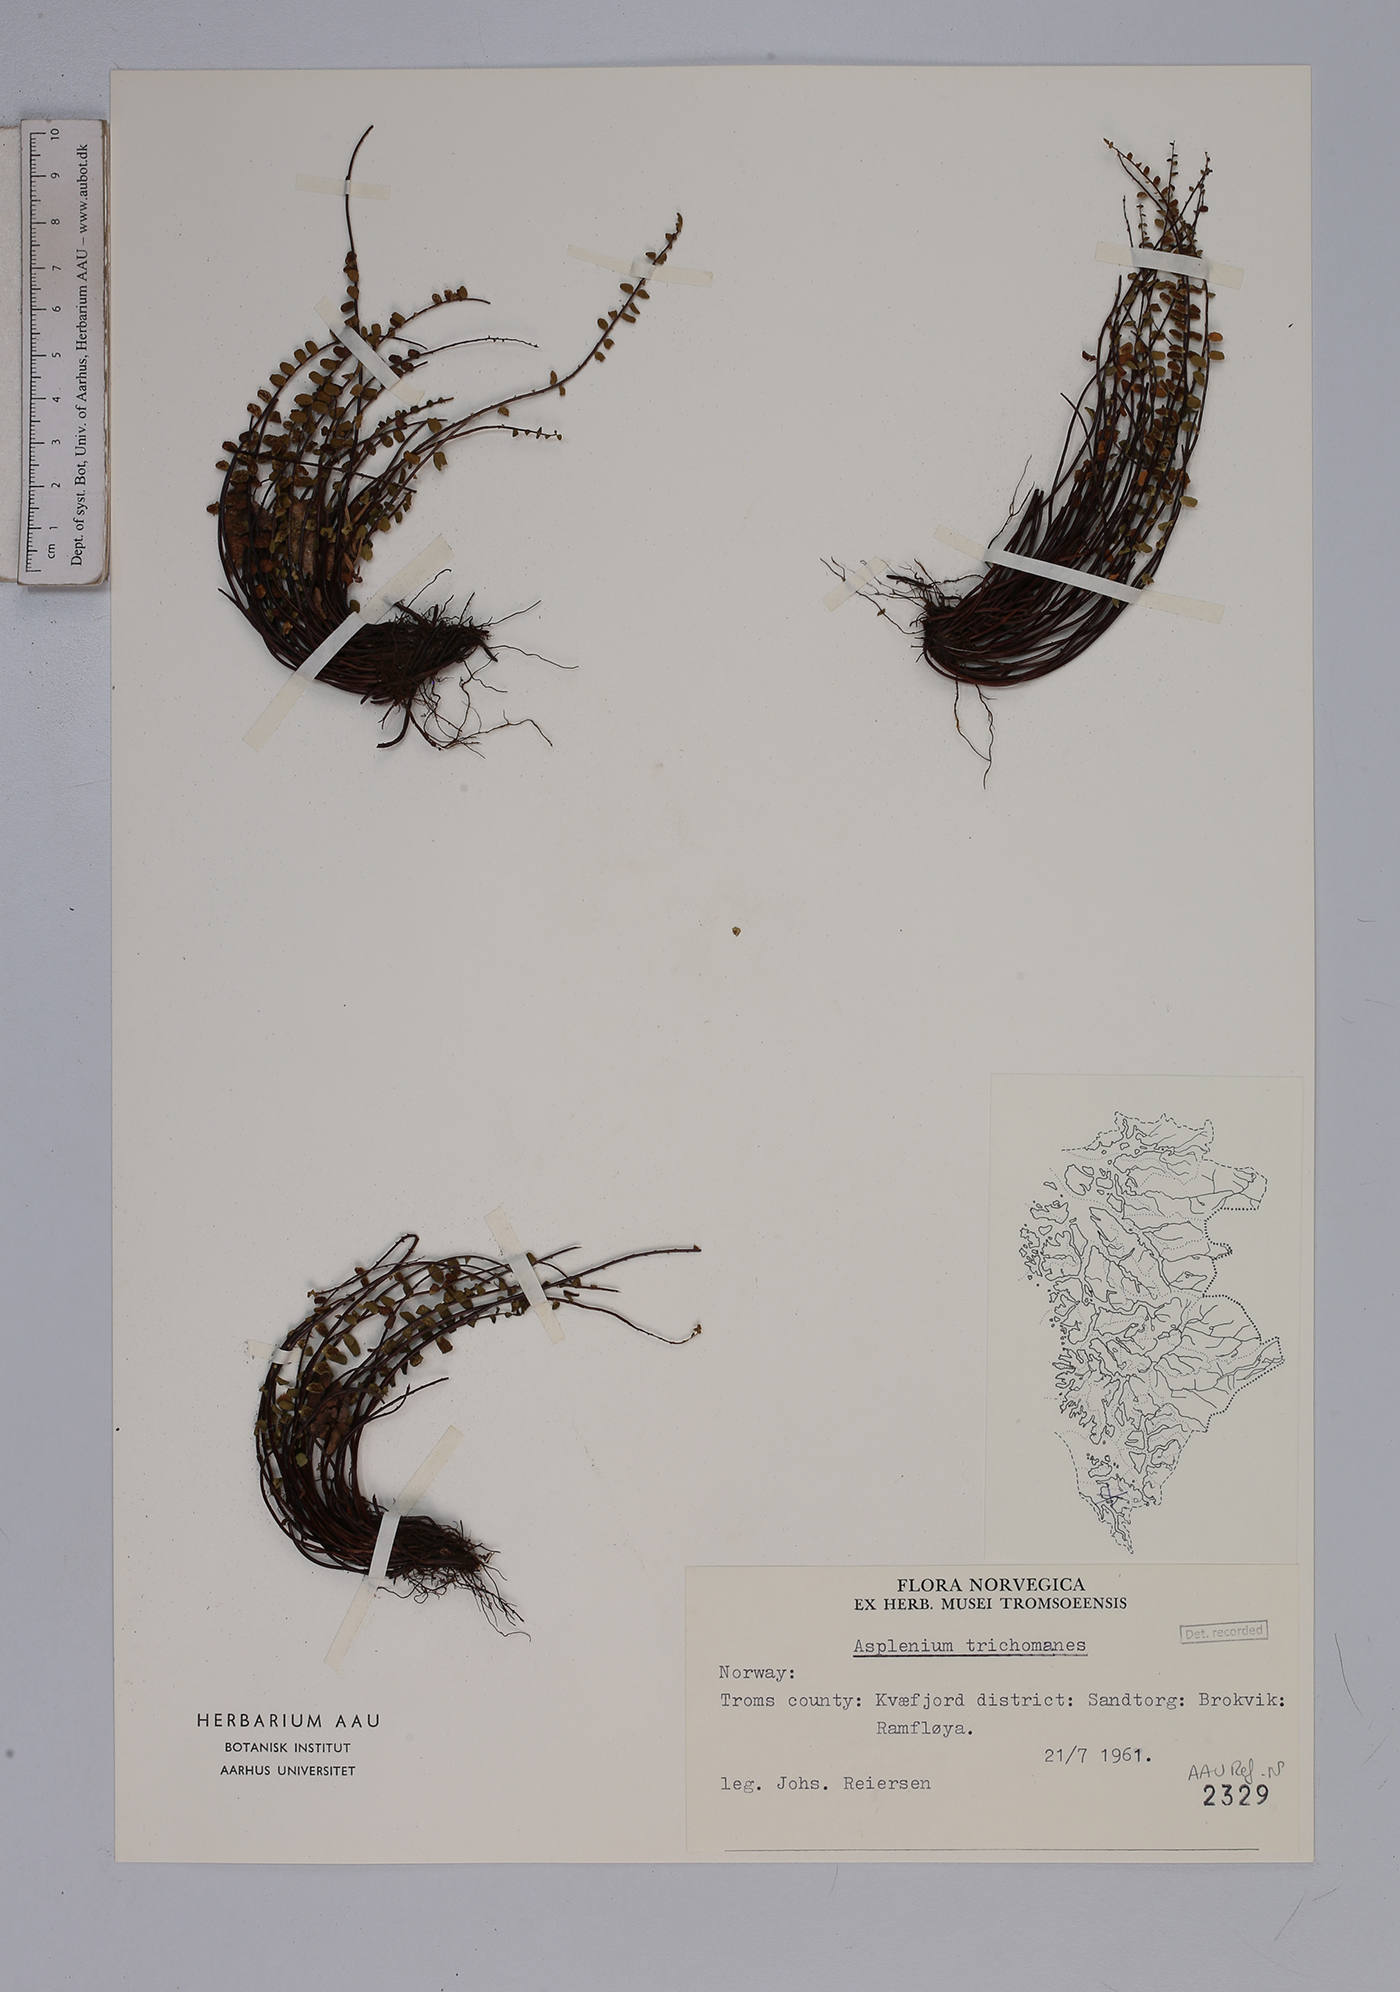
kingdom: Plantae
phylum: Tracheophyta
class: Polypodiopsida
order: Polypodiales
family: Aspleniaceae
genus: Asplenium
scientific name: Asplenium trichomanes
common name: Maidenhair spleenwort
